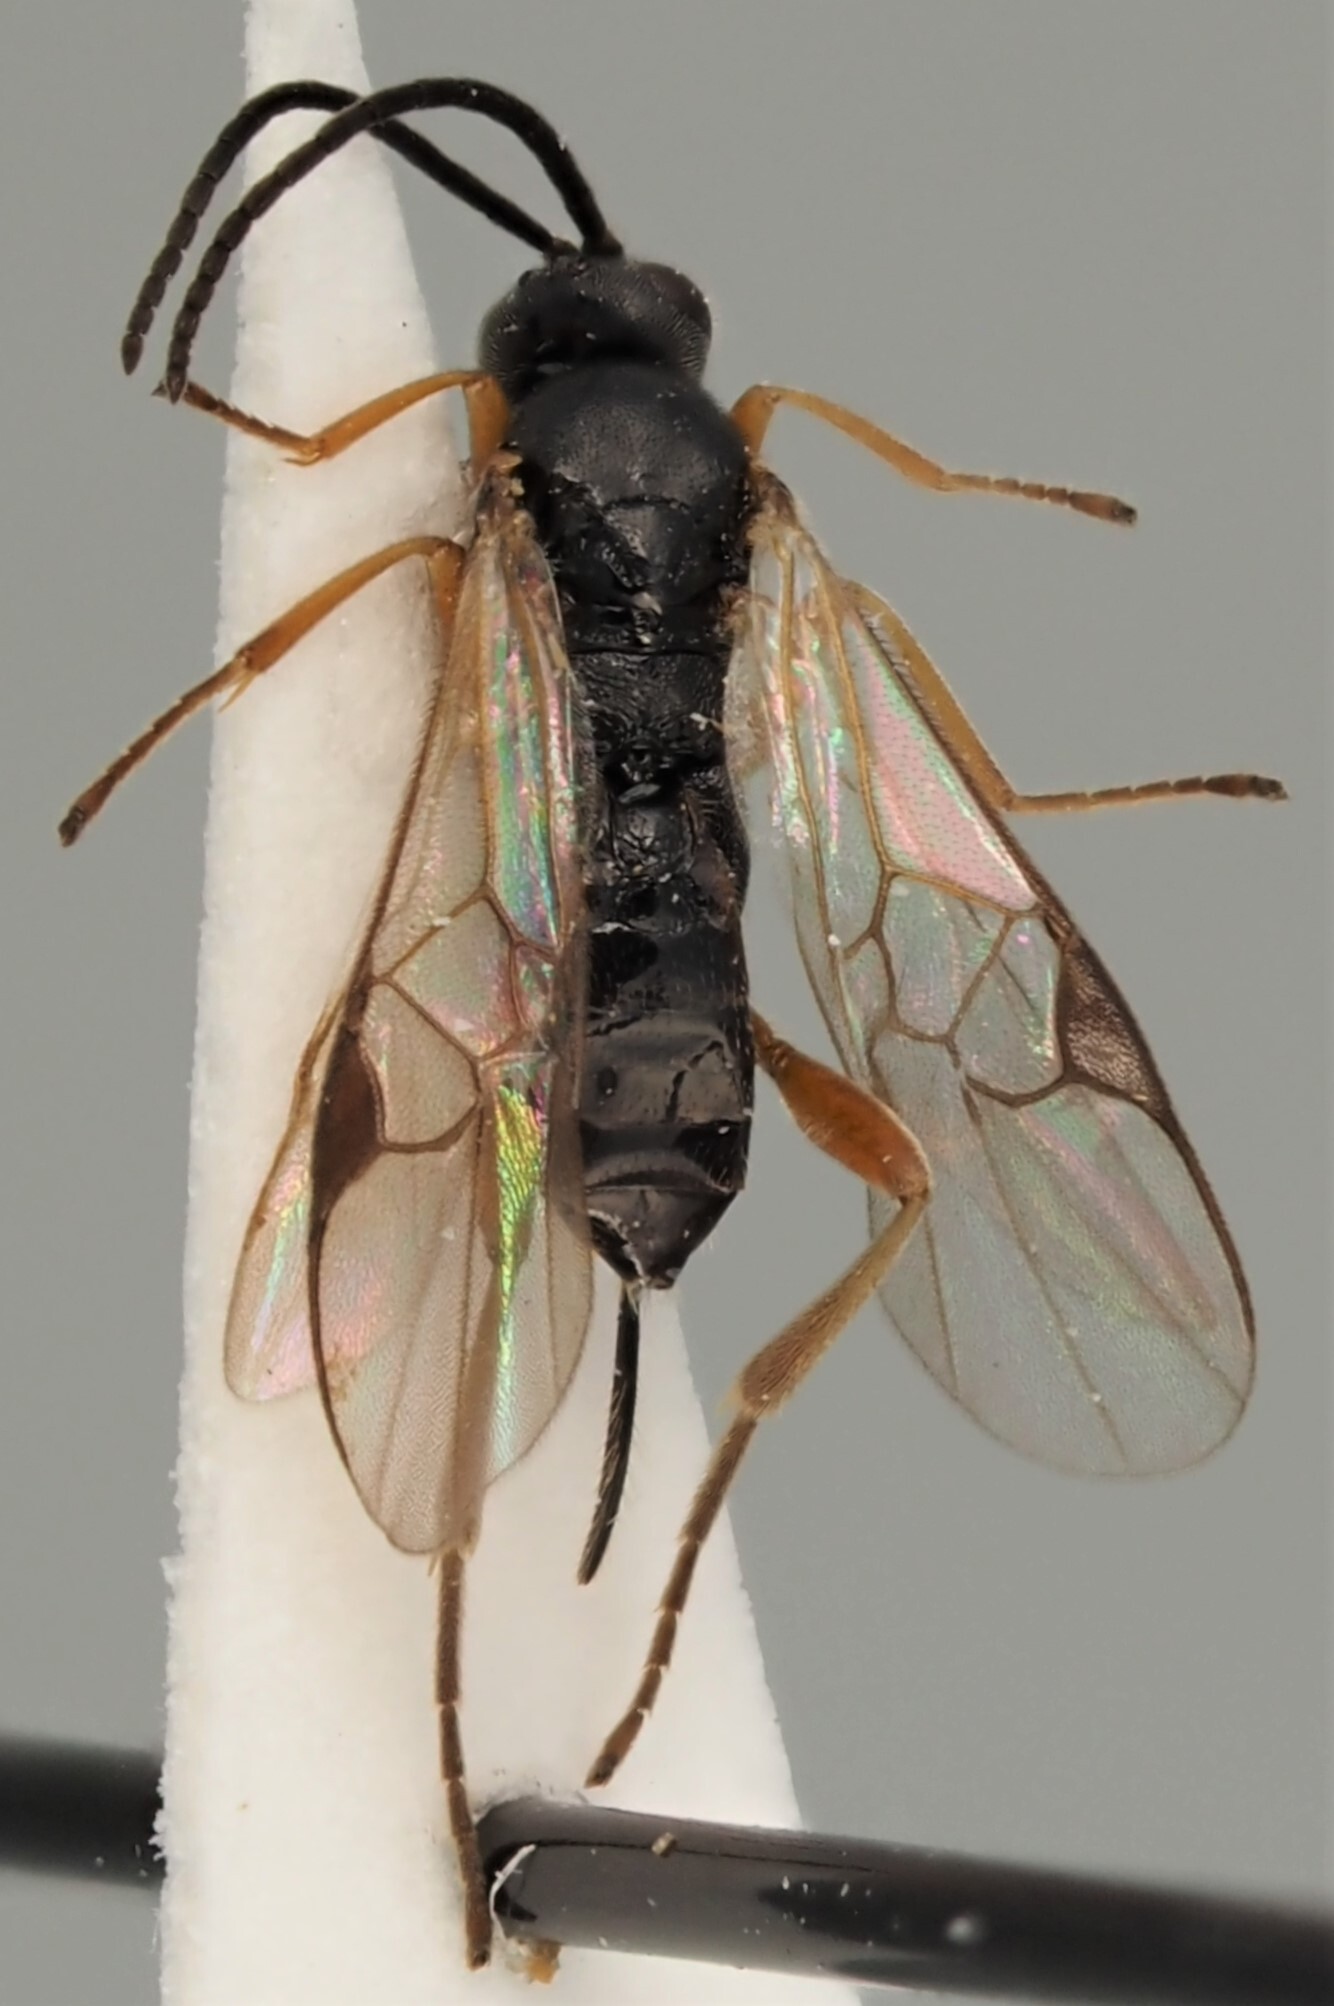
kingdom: Animalia
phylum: Arthropoda
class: Insecta
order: Hymenoptera
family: Braconidae
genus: Sathon
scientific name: Sathon falcatus
